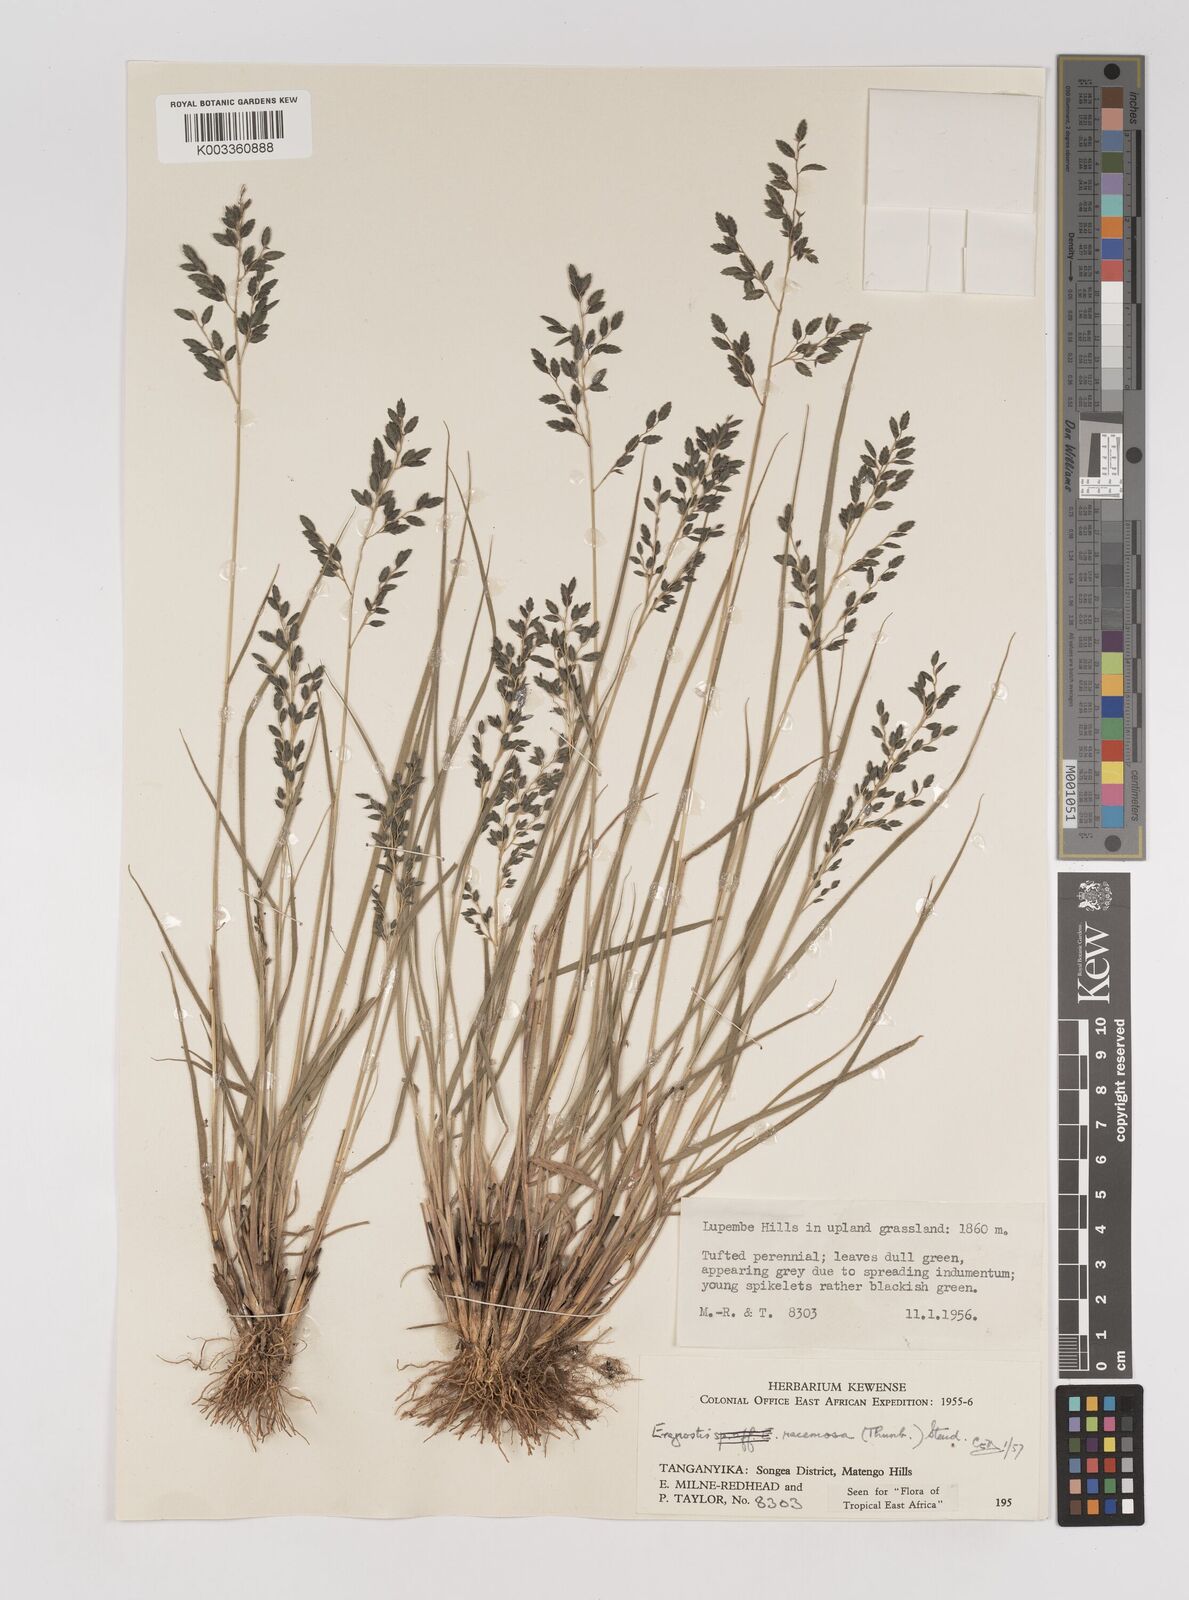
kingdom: Plantae
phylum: Tracheophyta
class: Liliopsida
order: Poales
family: Poaceae
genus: Eragrostis
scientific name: Eragrostis racemosa
